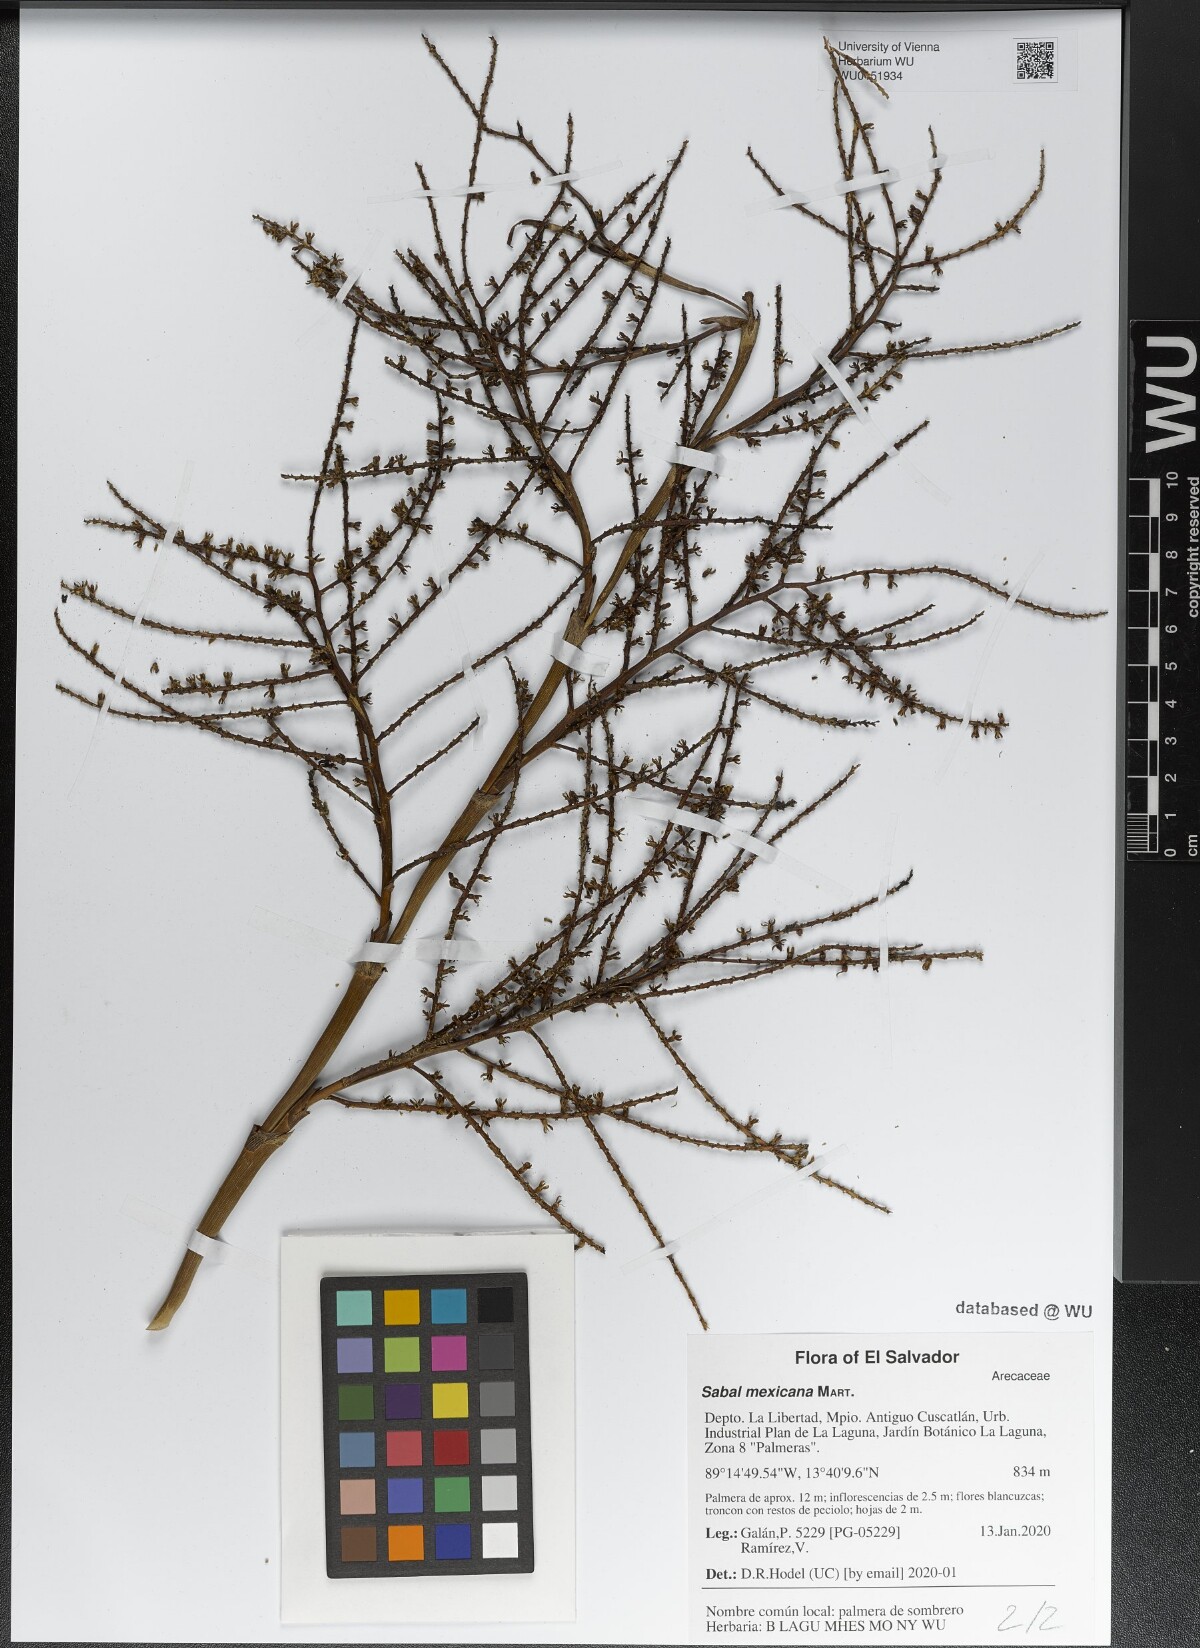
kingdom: Plantae
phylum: Tracheophyta
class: Liliopsida
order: Arecales
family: Arecaceae
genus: Sabal
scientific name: Sabal mexicana
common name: Texas palmetto
